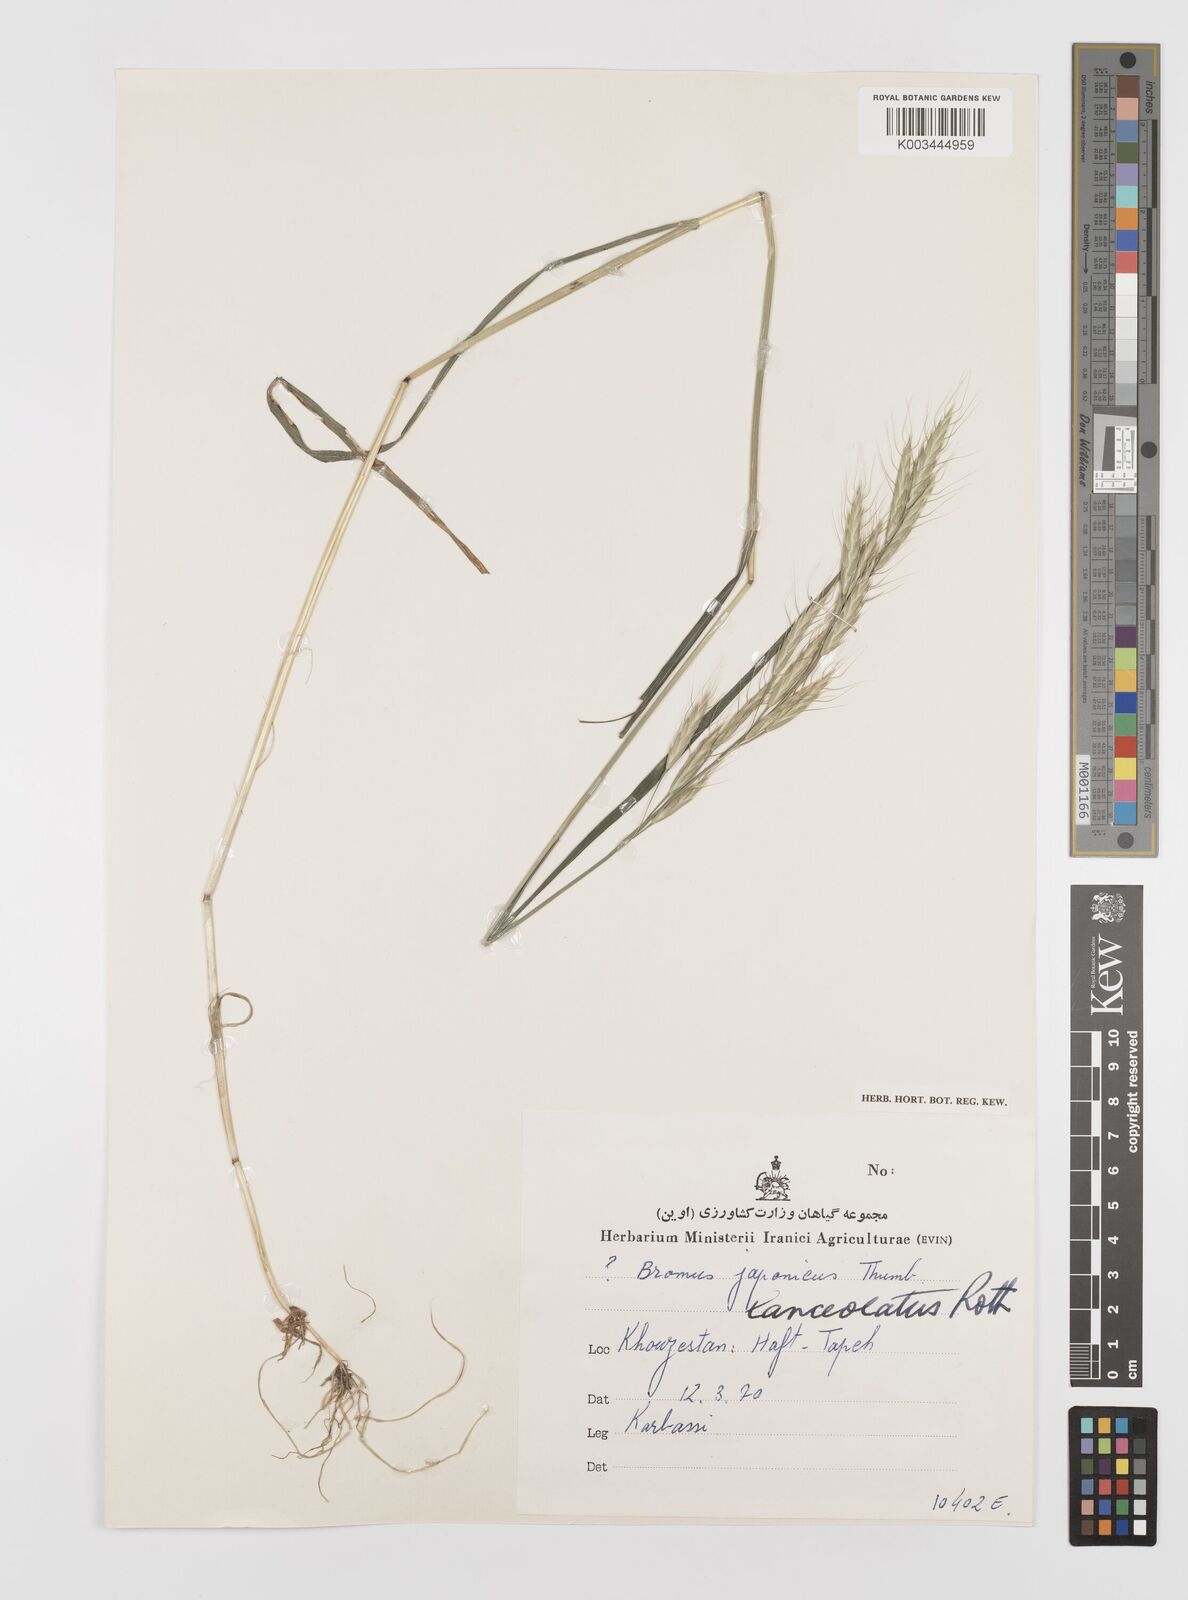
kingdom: Plantae
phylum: Tracheophyta
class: Liliopsida
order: Poales
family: Poaceae
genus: Bromus
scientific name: Bromus lanceolatus
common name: Mediterranean brome
